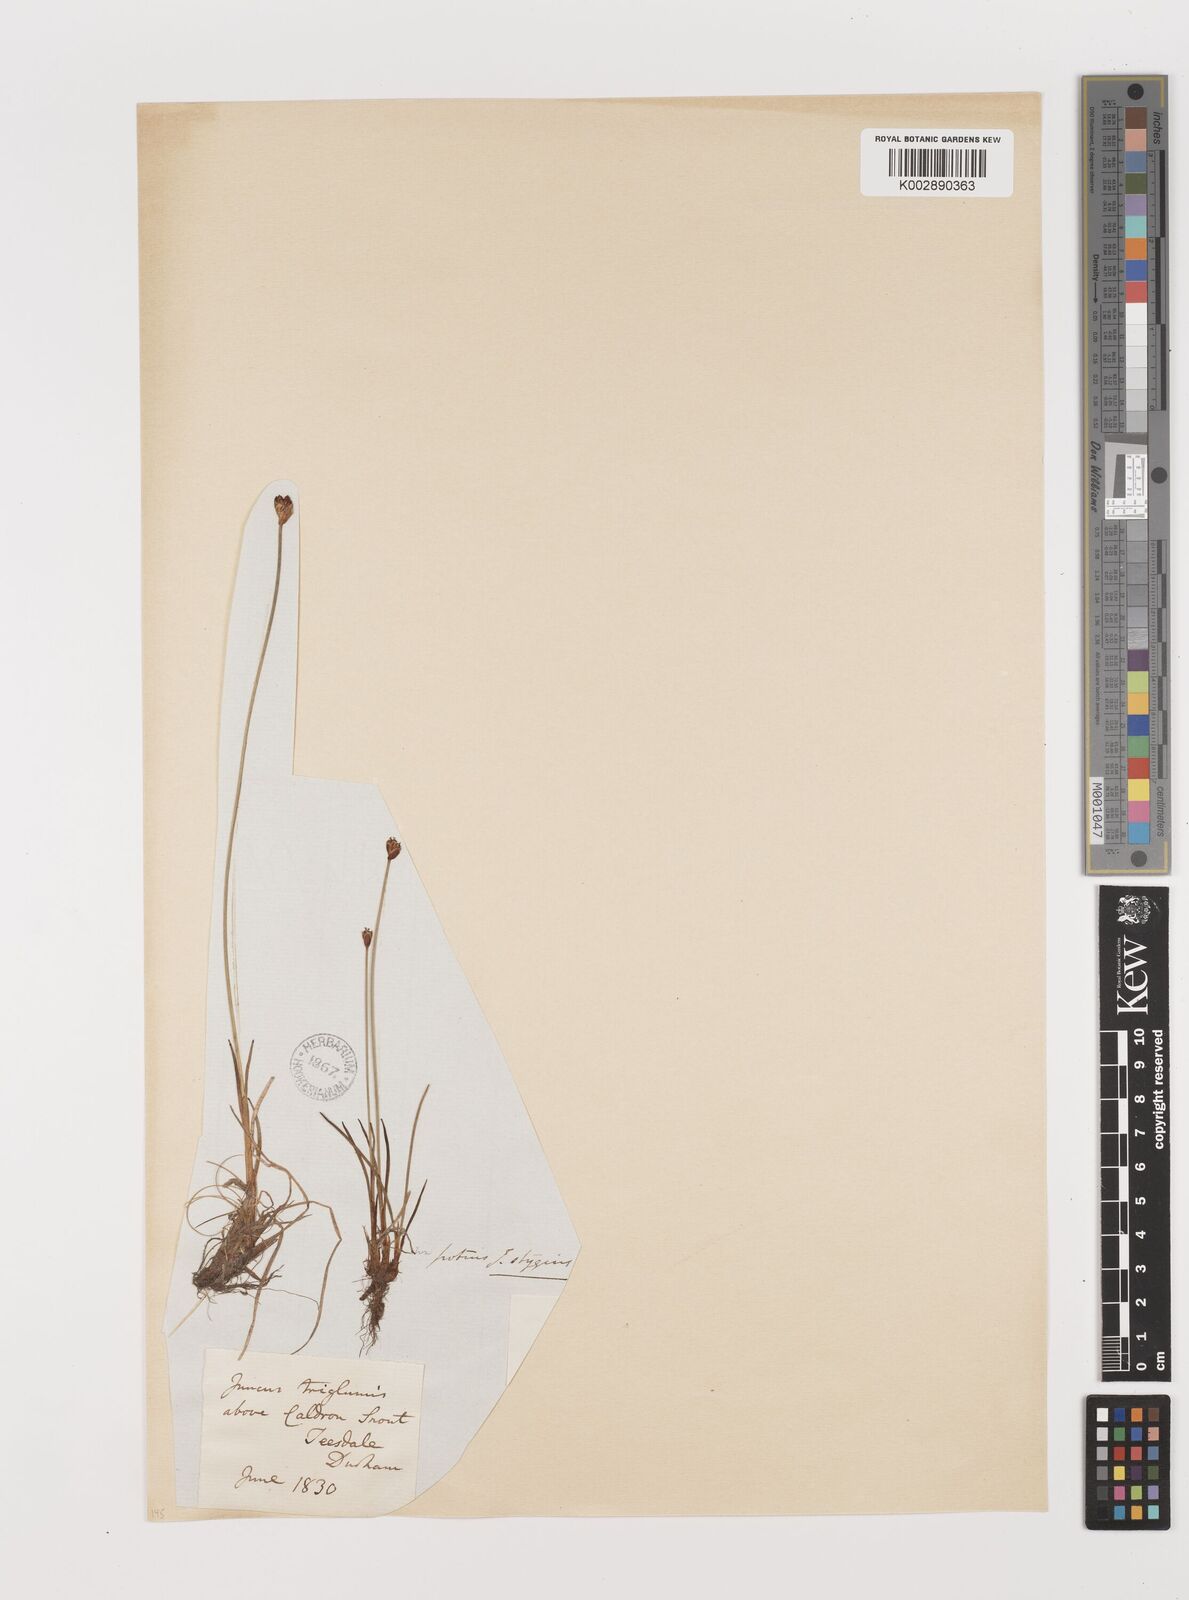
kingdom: Plantae
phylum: Tracheophyta
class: Liliopsida
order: Poales
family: Juncaceae
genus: Juncus
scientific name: Juncus triglumis
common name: Three-flowered rush
